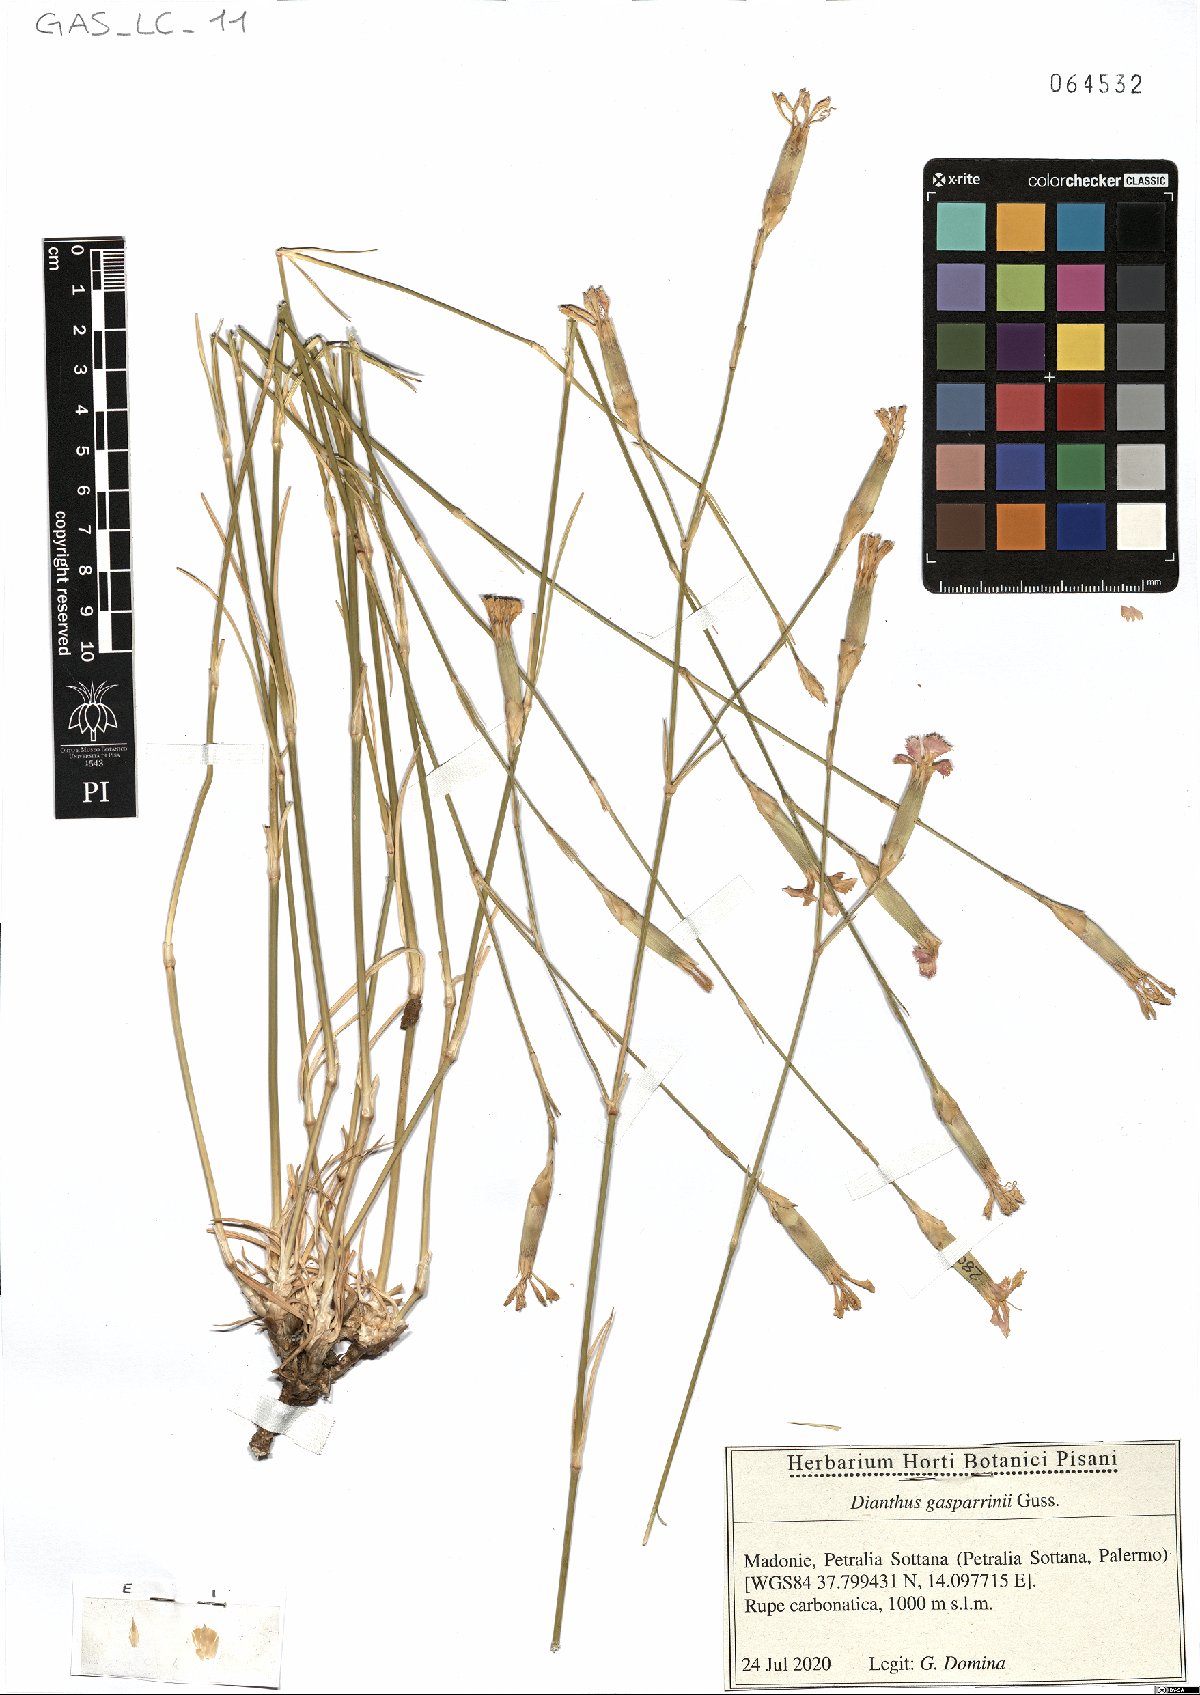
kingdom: Plantae
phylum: Tracheophyta
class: Magnoliopsida
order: Caryophyllales
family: Caryophyllaceae
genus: Dianthus
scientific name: Dianthus gasparrinii
